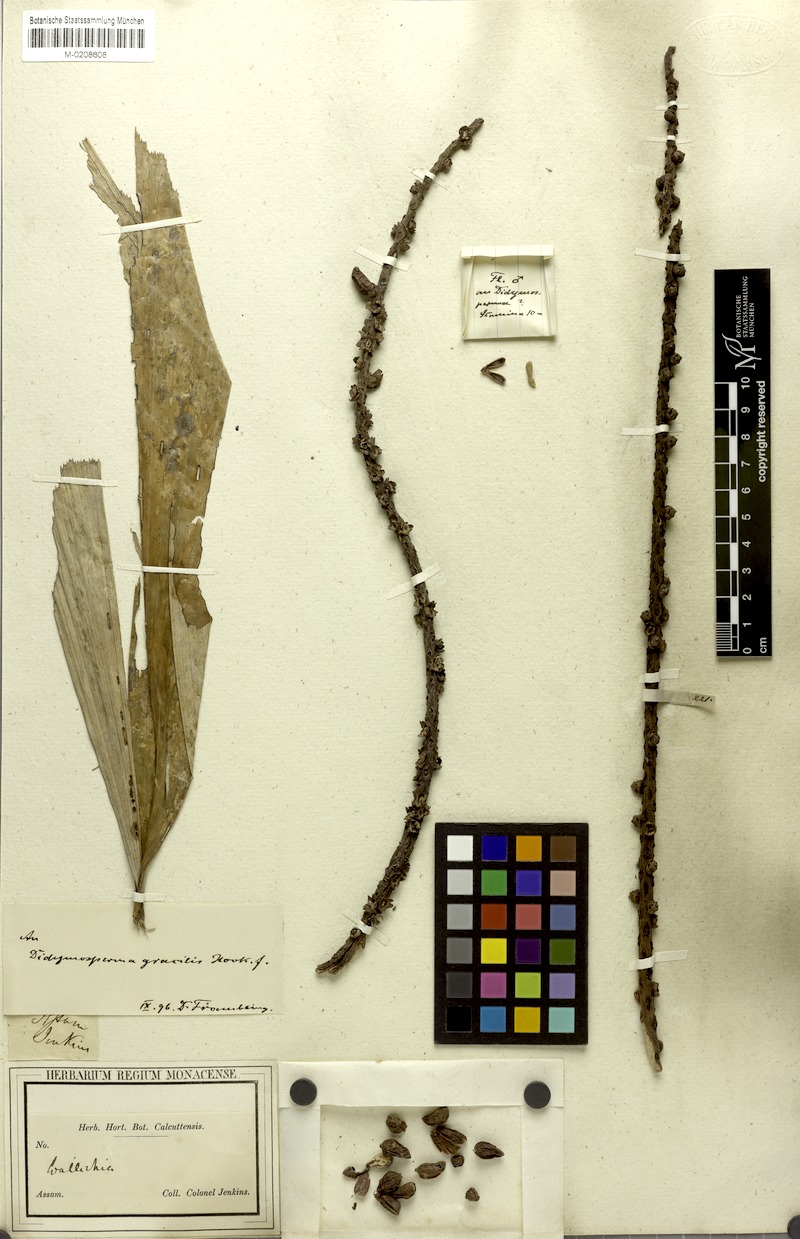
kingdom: Plantae
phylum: Tracheophyta
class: Liliopsida
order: Arecales
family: Arecaceae
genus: Wallichia
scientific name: Wallichia nana
